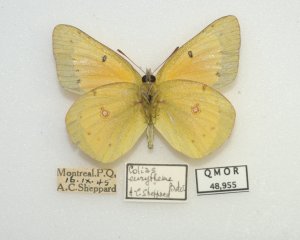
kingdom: Animalia
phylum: Arthropoda
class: Insecta
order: Lepidoptera
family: Pieridae
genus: Colias
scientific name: Colias eurytheme
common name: Orange Sulphur
